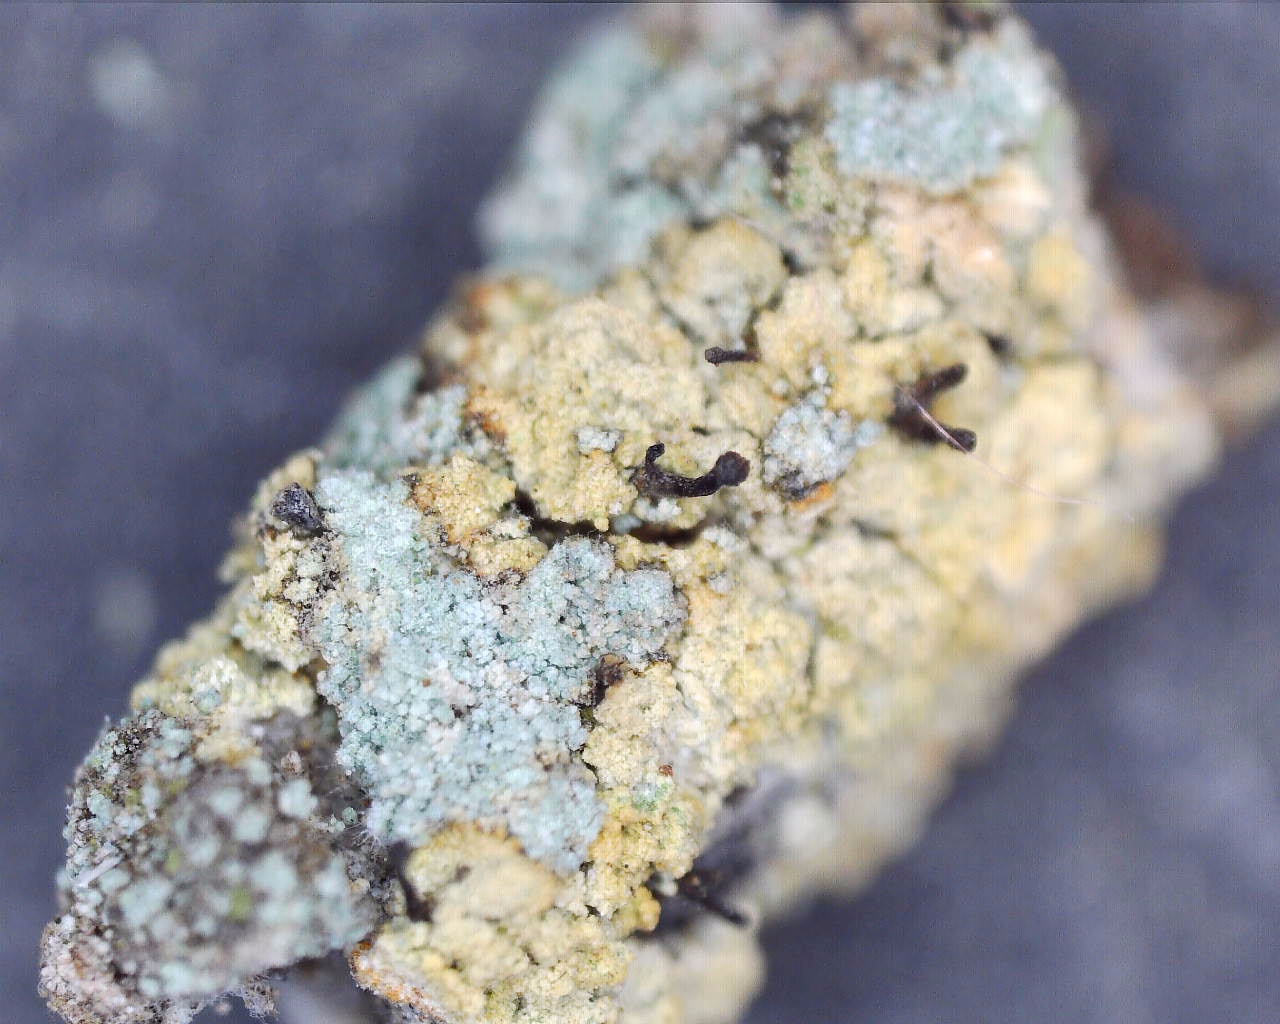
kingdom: Fungi
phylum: Ascomycota
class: Coniocybomycetes
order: Coniocybales
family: Coniocybaceae
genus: Chaenotheca
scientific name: Chaenotheca ferruginea
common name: rustbrun knappenålslav
